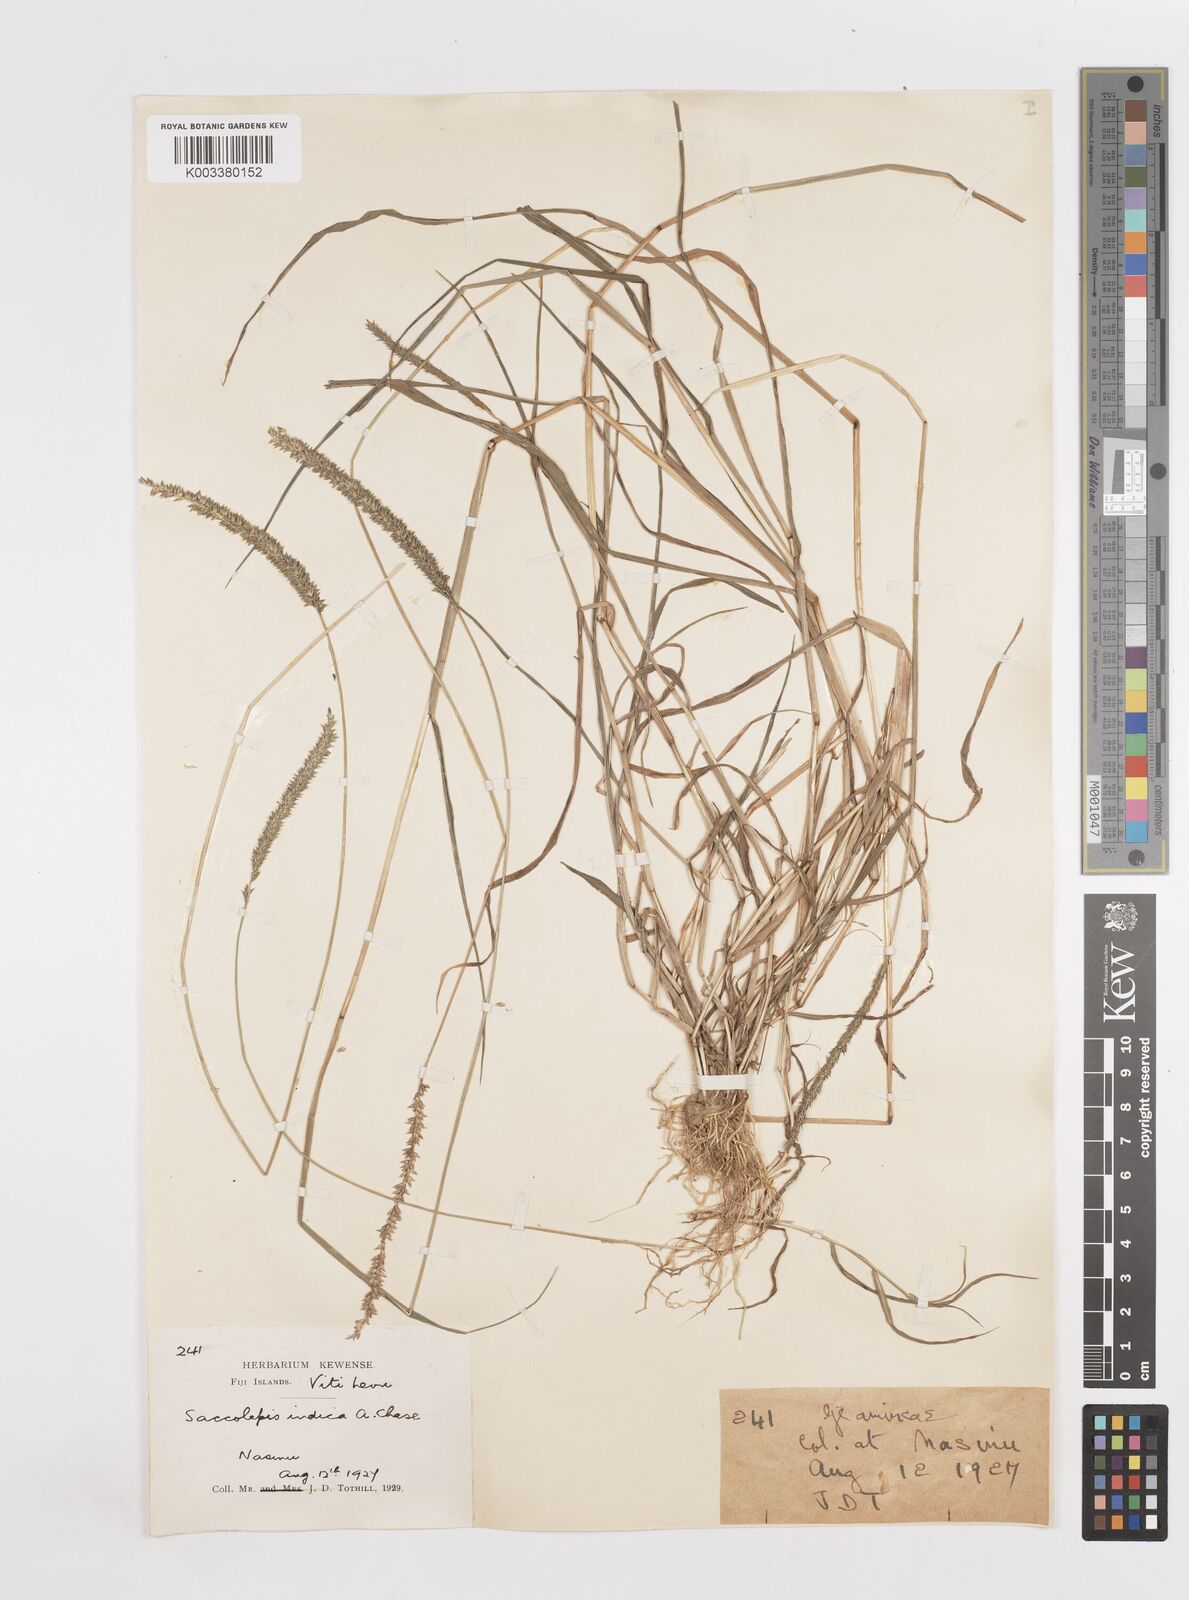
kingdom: Plantae
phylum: Tracheophyta
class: Liliopsida
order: Poales
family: Poaceae
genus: Sacciolepis
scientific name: Sacciolepis indica
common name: Glenwoodgrass
